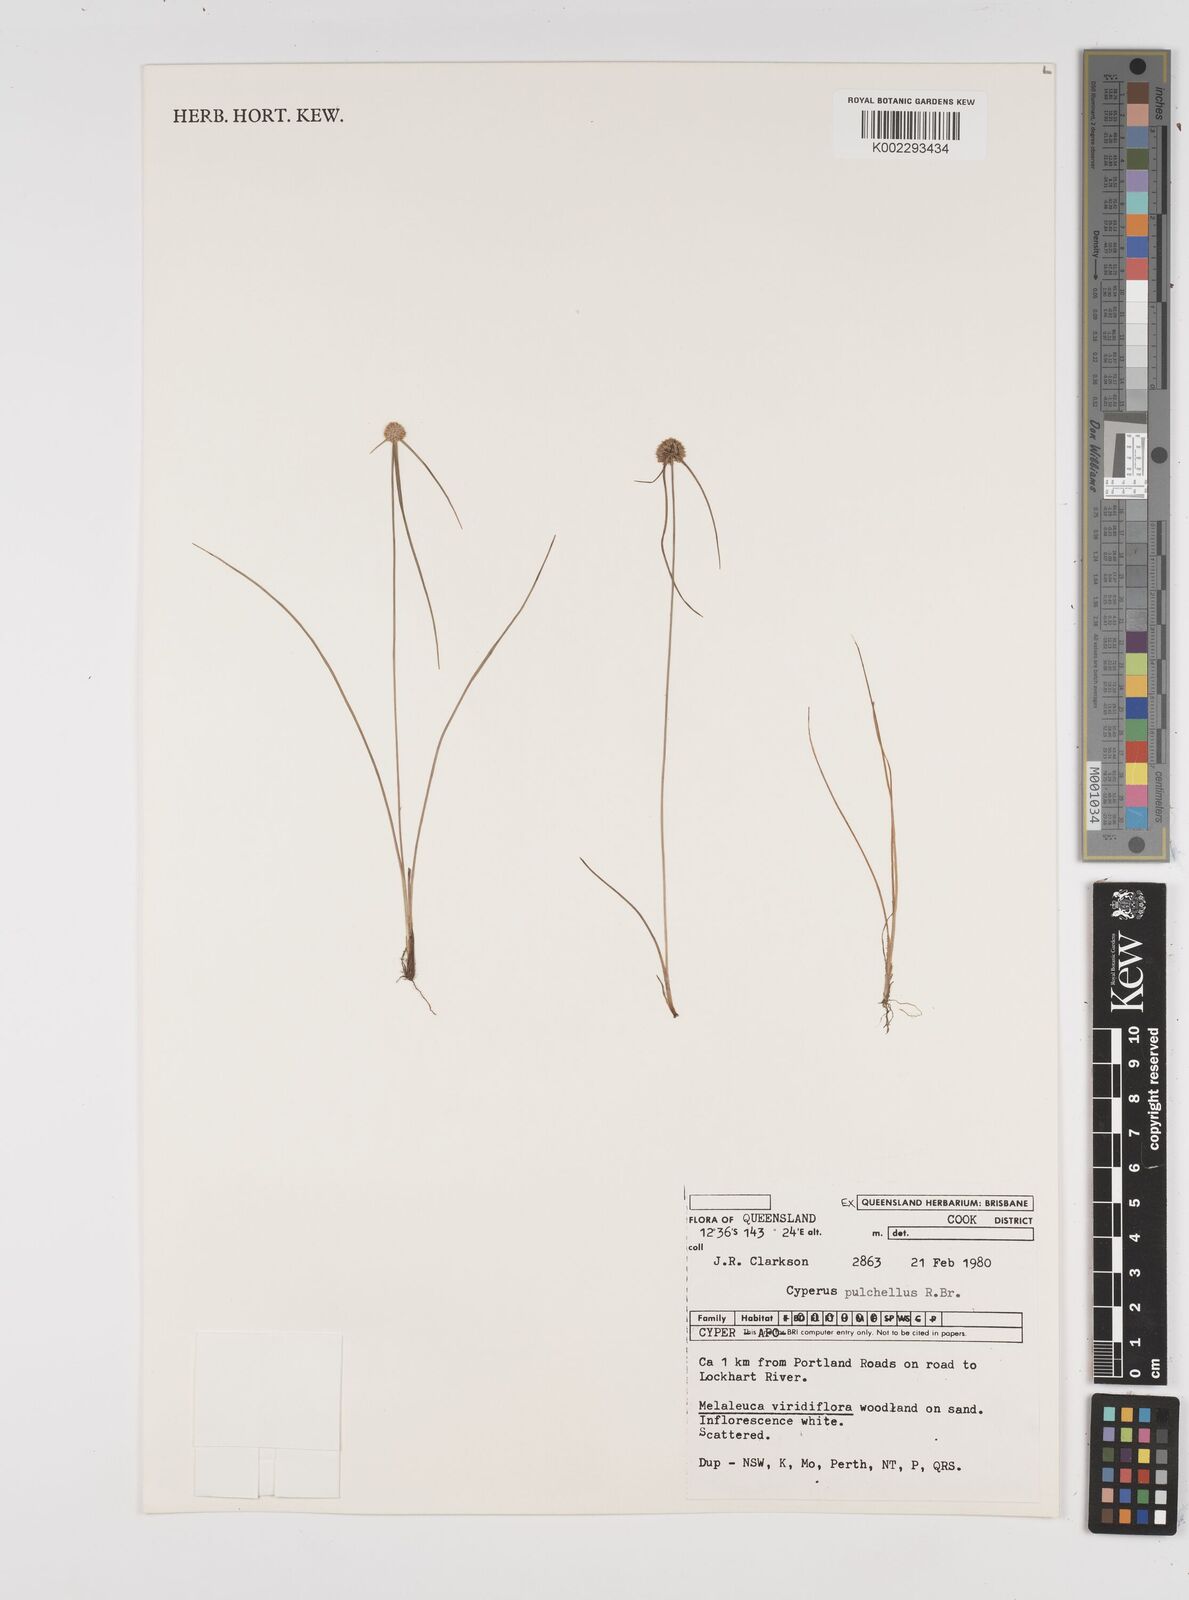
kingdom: Plantae
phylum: Tracheophyta
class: Liliopsida
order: Poales
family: Cyperaceae
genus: Cyperus
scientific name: Cyperus pulchellus
